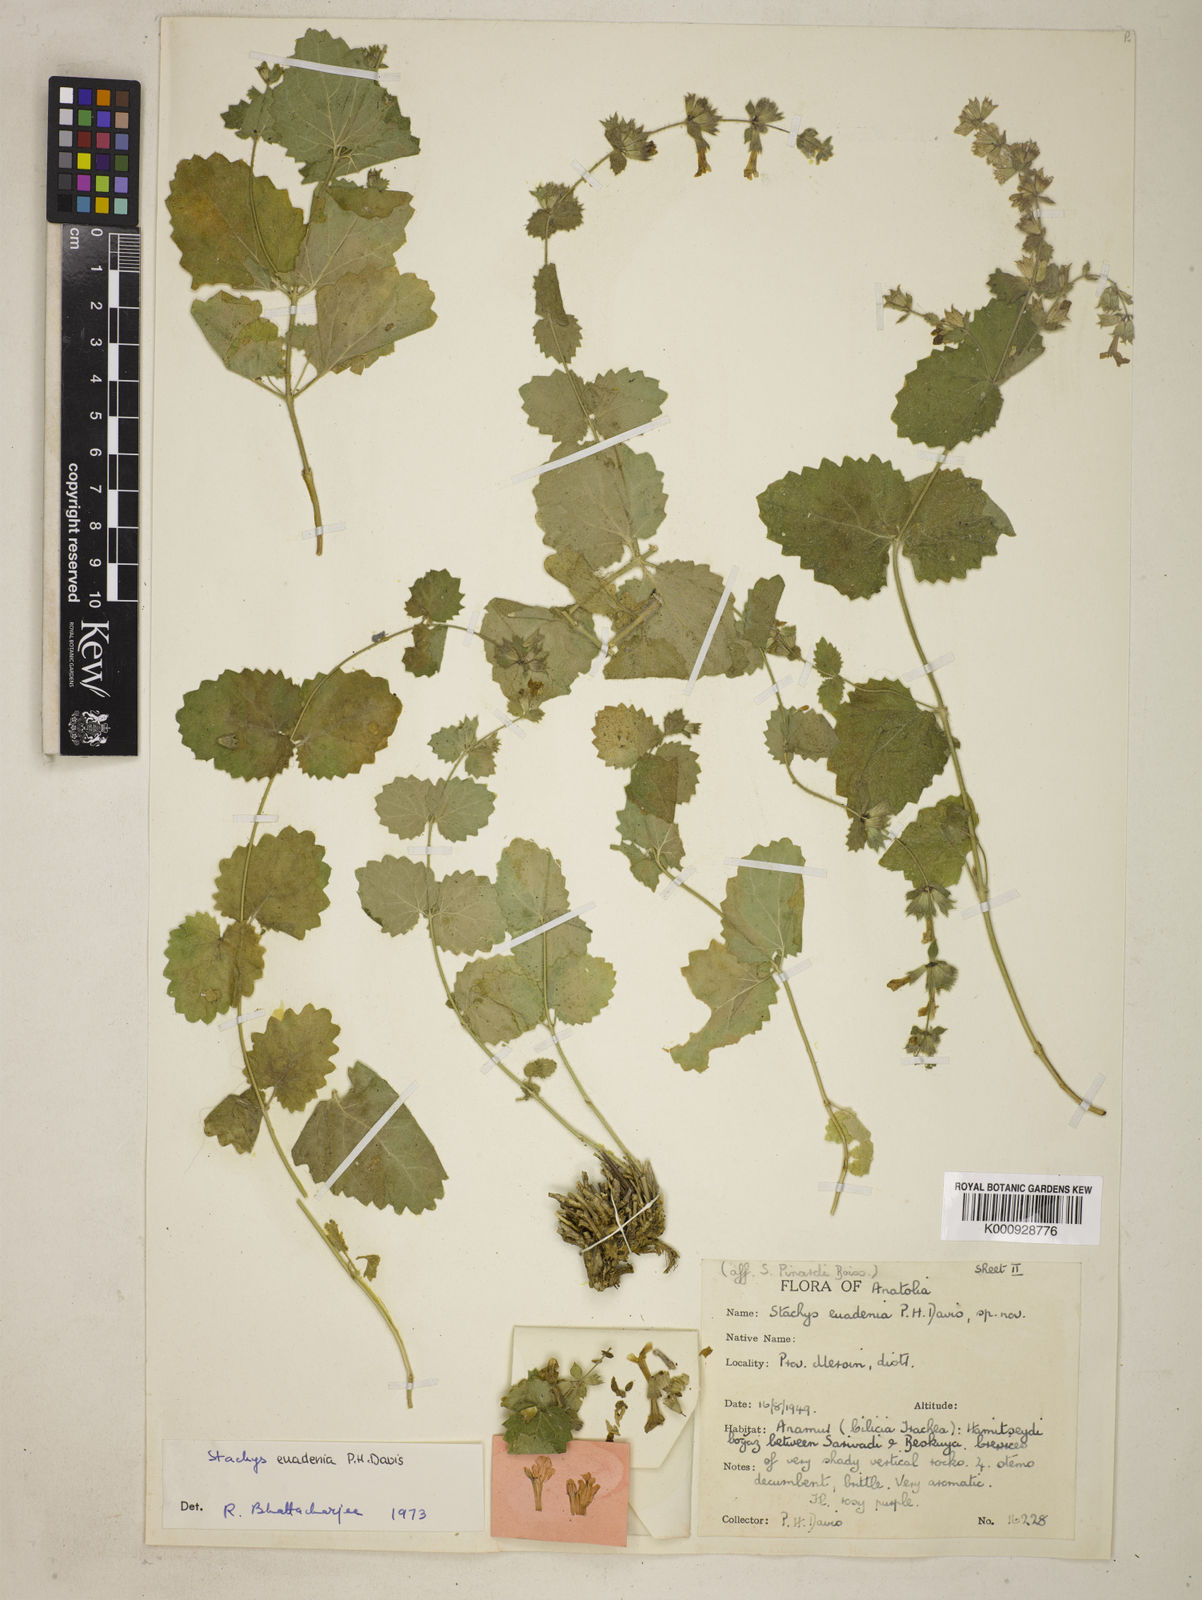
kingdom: Plantae
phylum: Tracheophyta
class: Magnoliopsida
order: Lamiales
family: Lamiaceae
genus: Stachys
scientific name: Stachys euadenia
